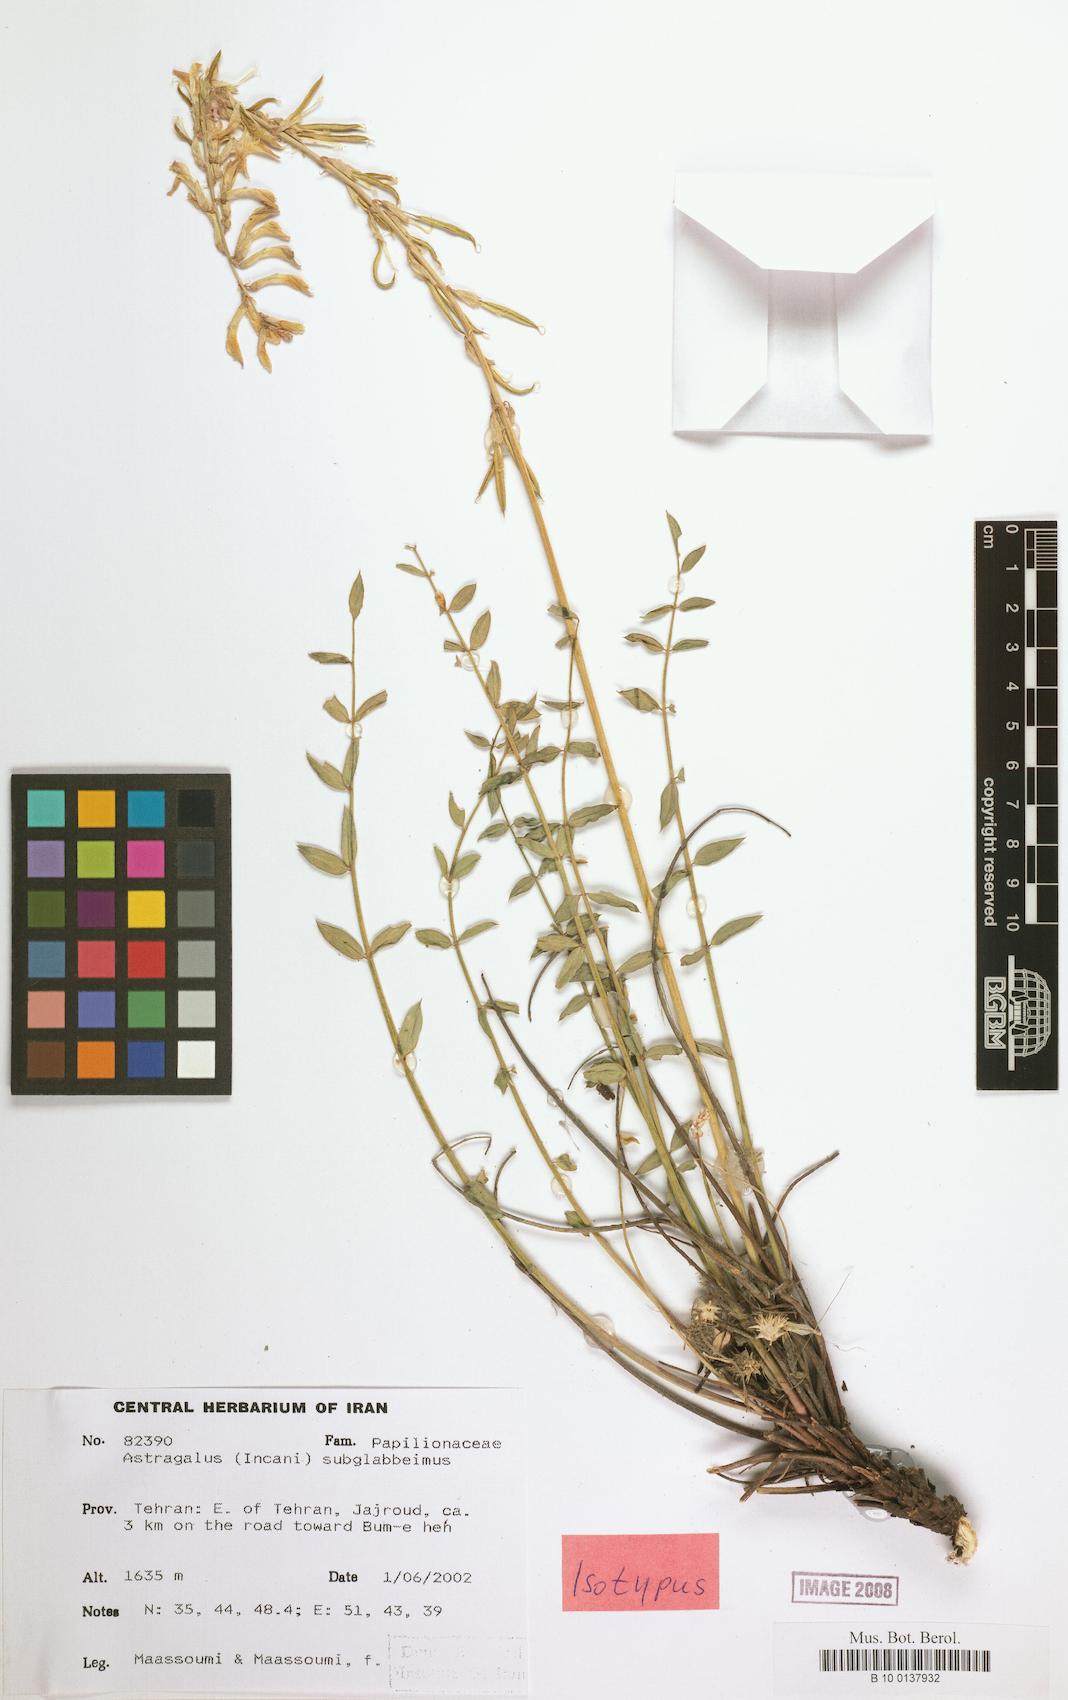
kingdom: Plantae
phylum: Tracheophyta
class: Magnoliopsida
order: Fabales
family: Fabaceae
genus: Astragalus
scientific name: Astragalus subglaberrimus
